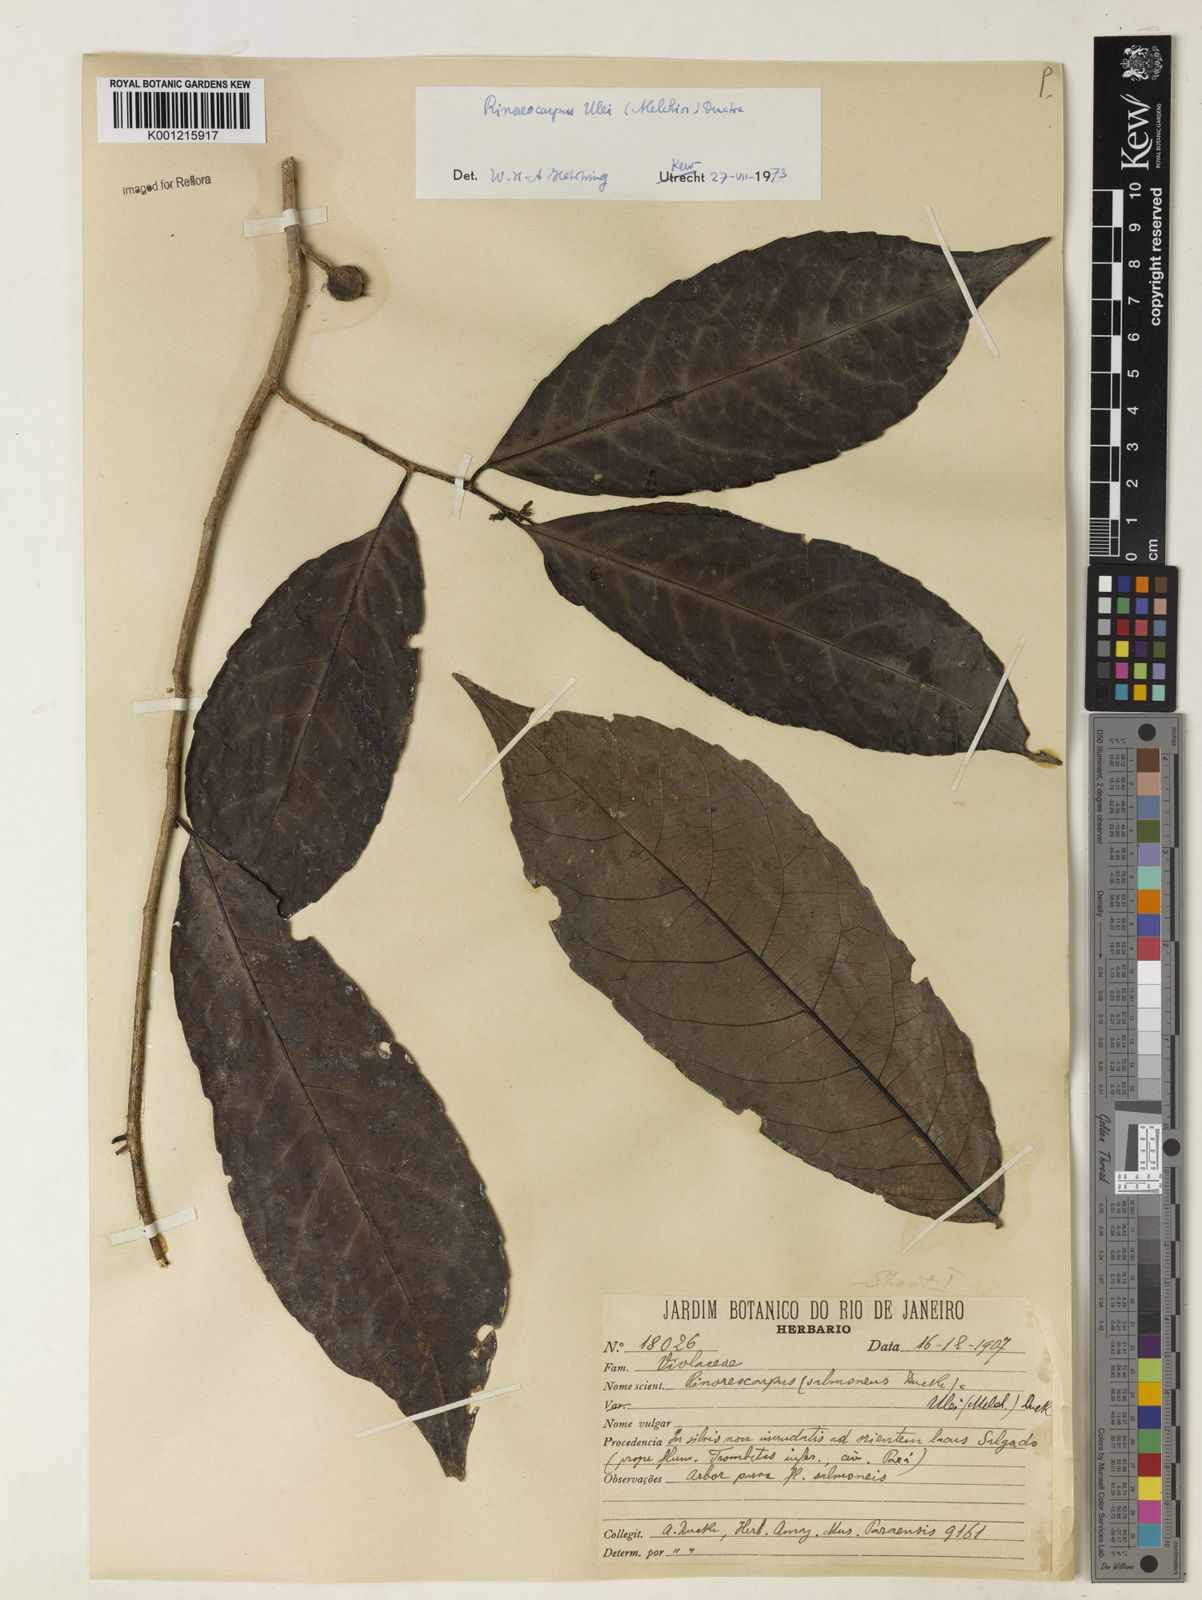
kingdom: Plantae
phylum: Tracheophyta
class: Magnoliopsida
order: Malpighiales
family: Violaceae
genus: Rinorea
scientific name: Rinorea
